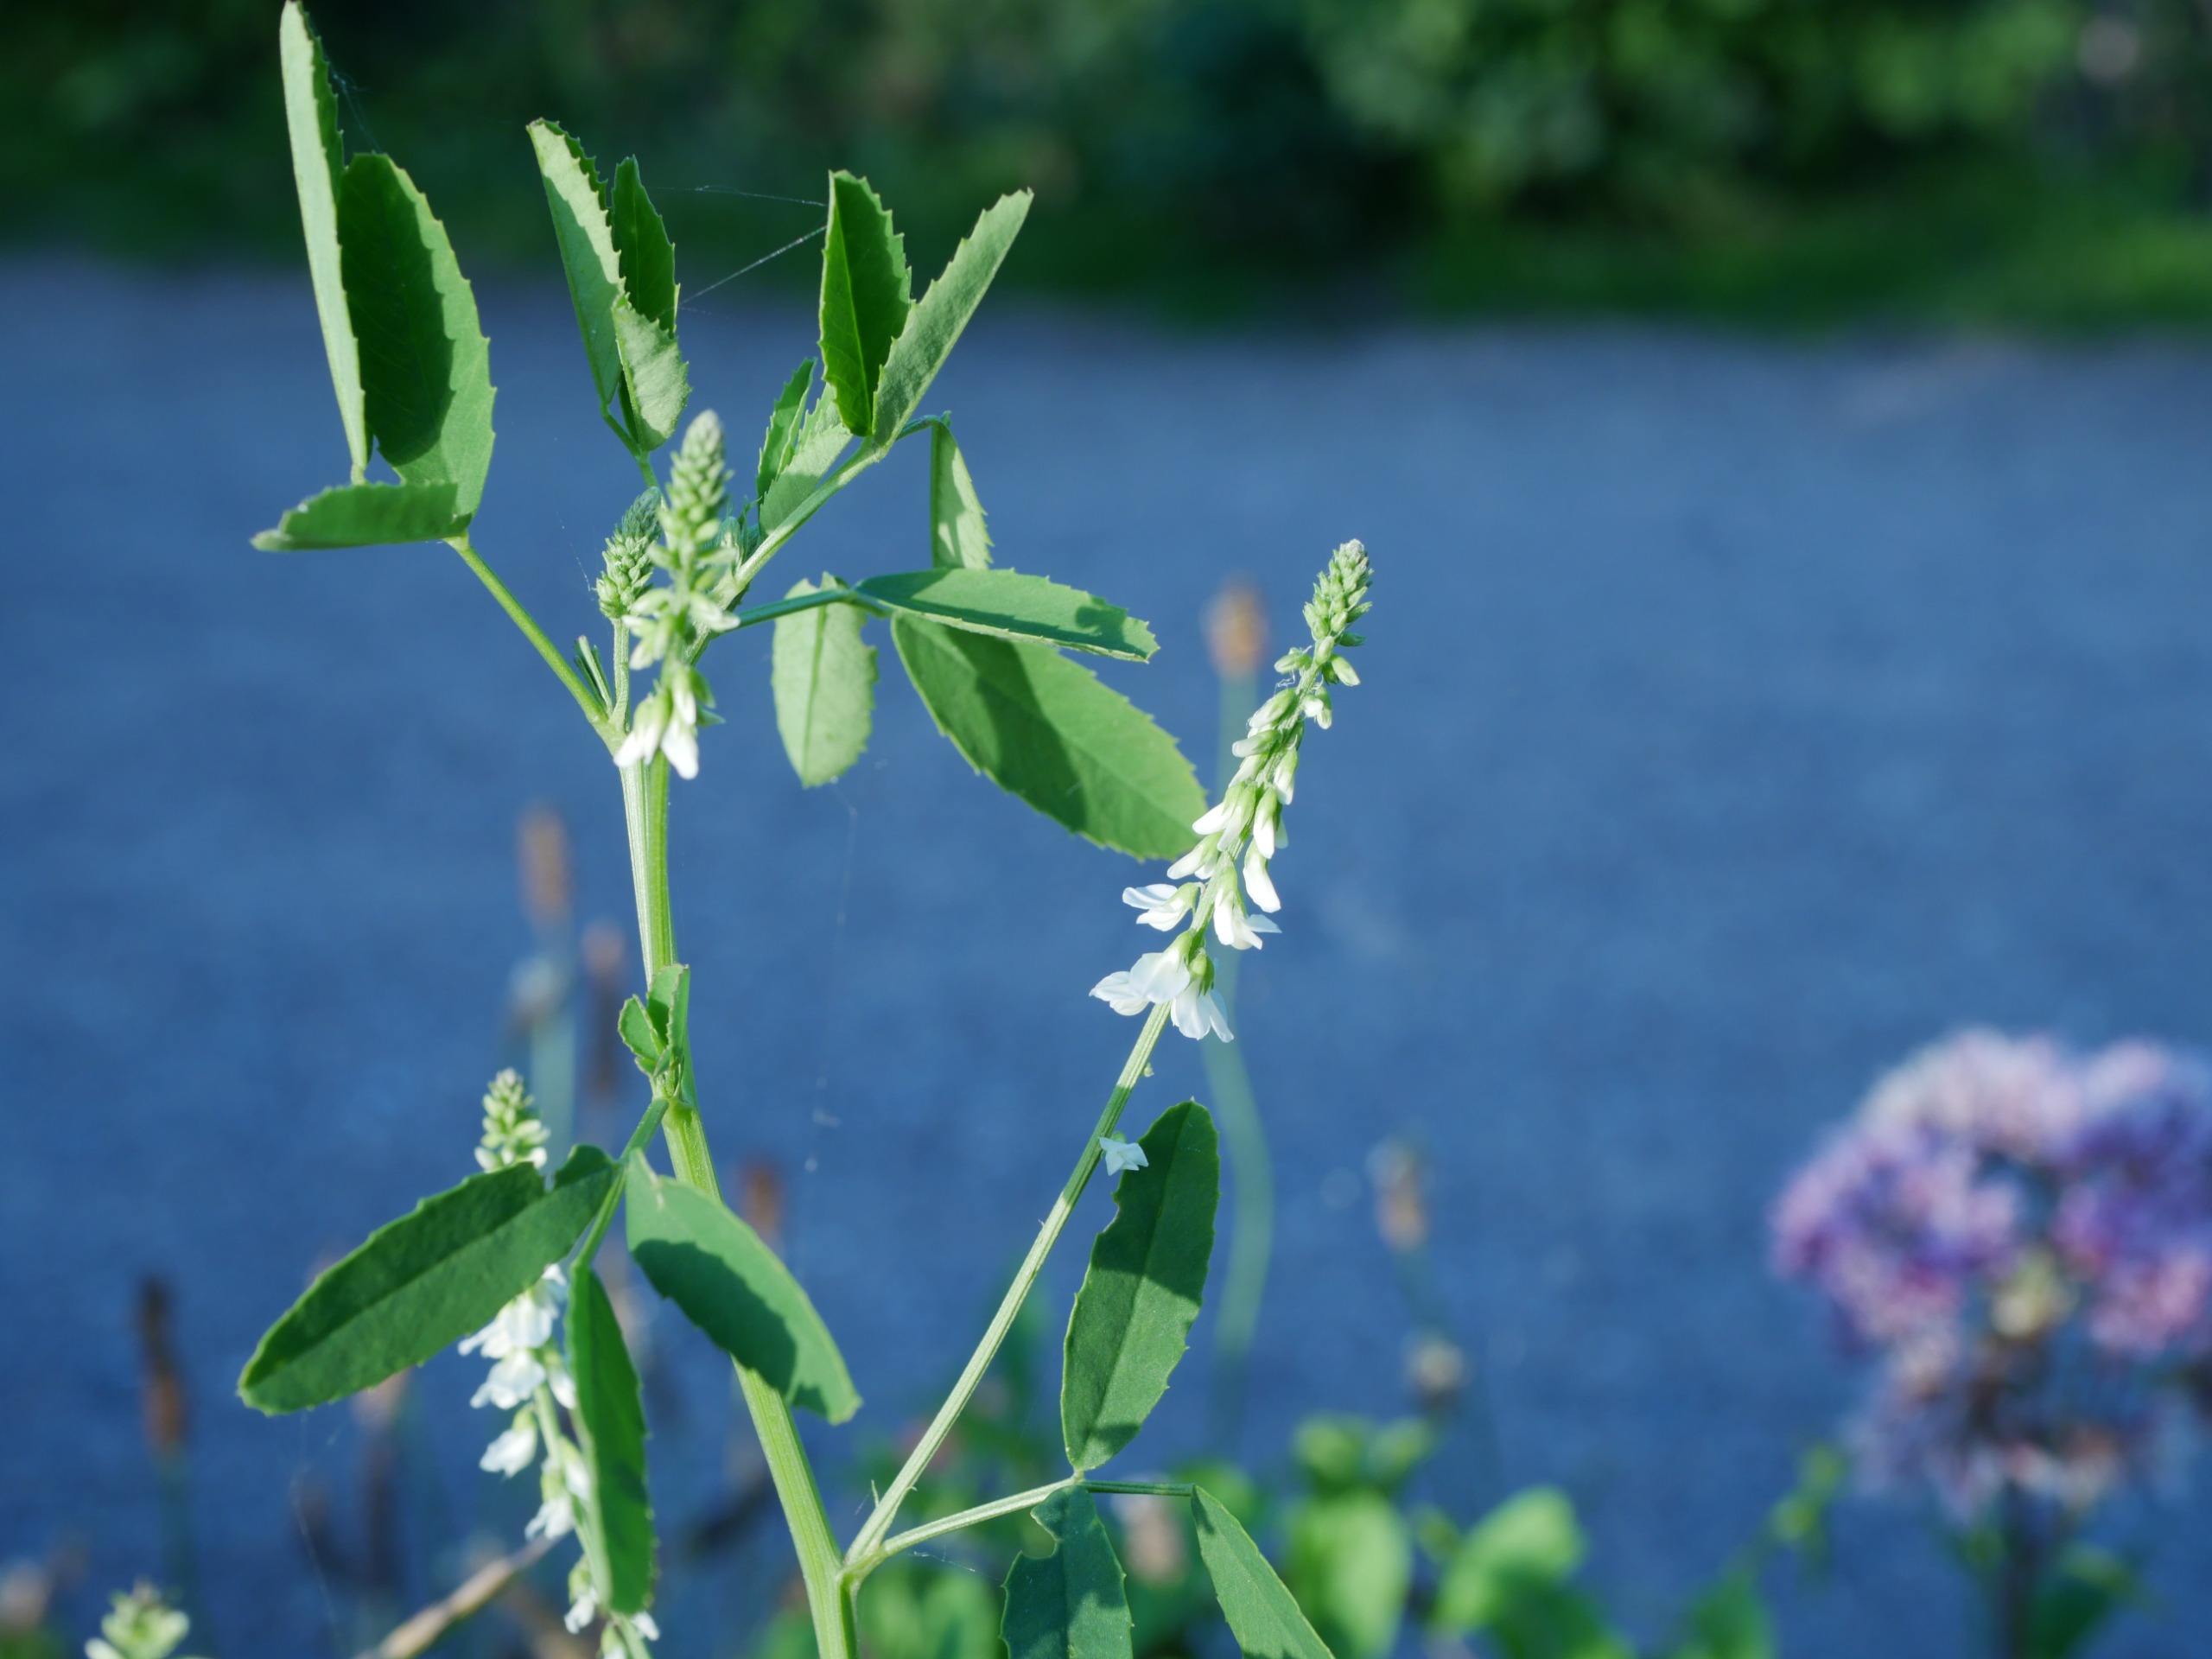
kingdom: Plantae
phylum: Tracheophyta
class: Magnoliopsida
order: Fabales
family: Fabaceae
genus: Melilotus
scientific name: Melilotus albus
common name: Hvid stenkløver
